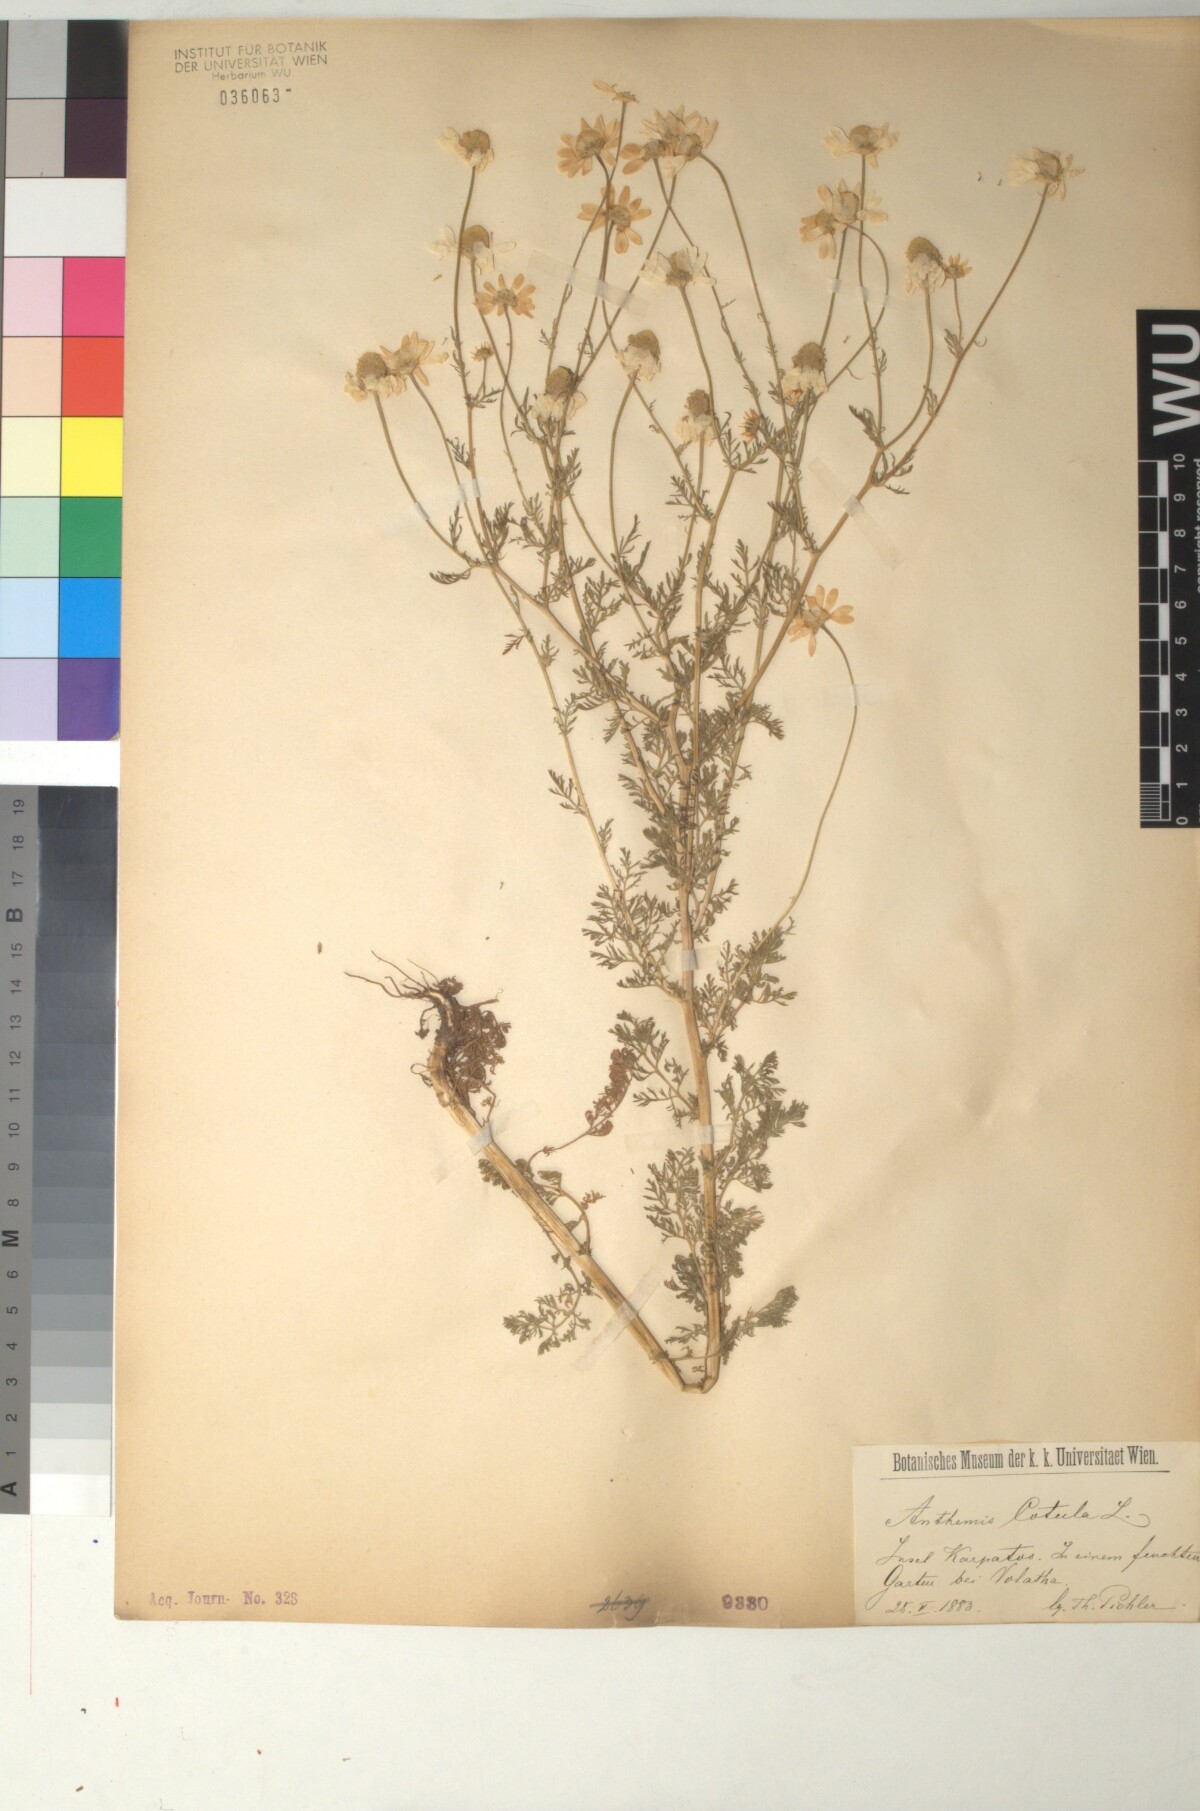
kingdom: Plantae
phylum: Tracheophyta
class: Magnoliopsida
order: Asterales
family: Asteraceae
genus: Anthemis
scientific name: Anthemis cotula
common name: Stinking chamomile
